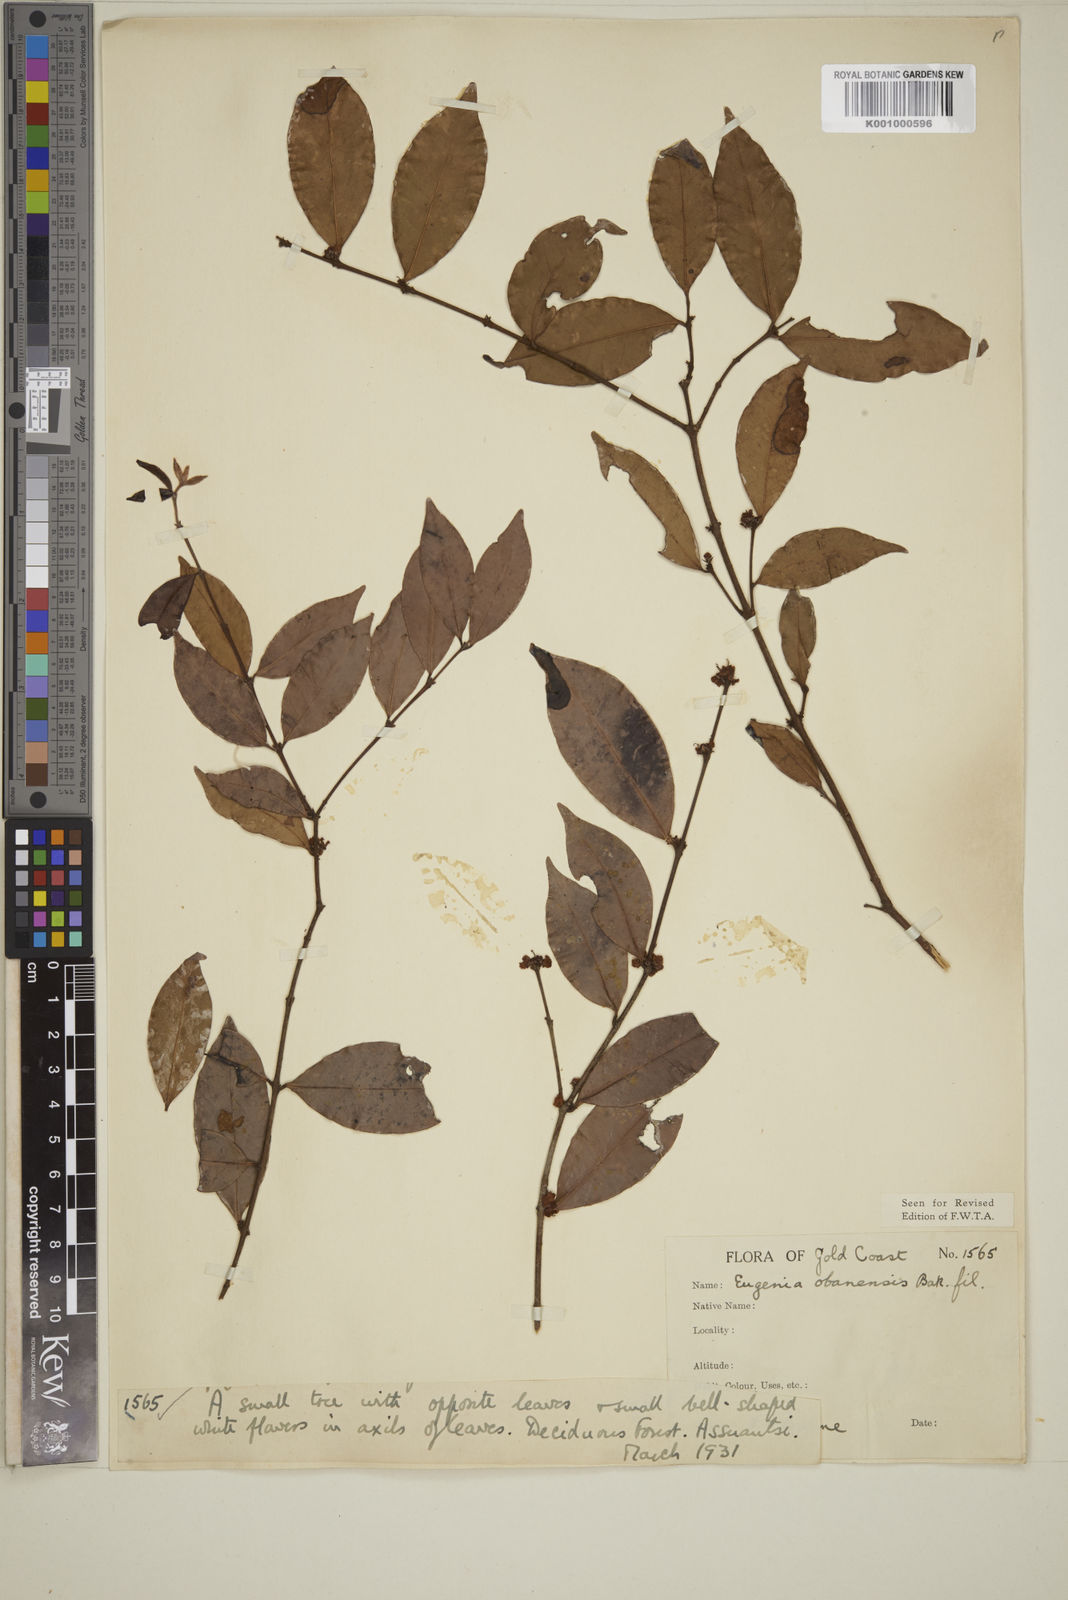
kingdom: Plantae
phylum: Tracheophyta
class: Magnoliopsida
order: Myrtales
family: Myrtaceae
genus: Eugenia
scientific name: Eugenia obanensis
